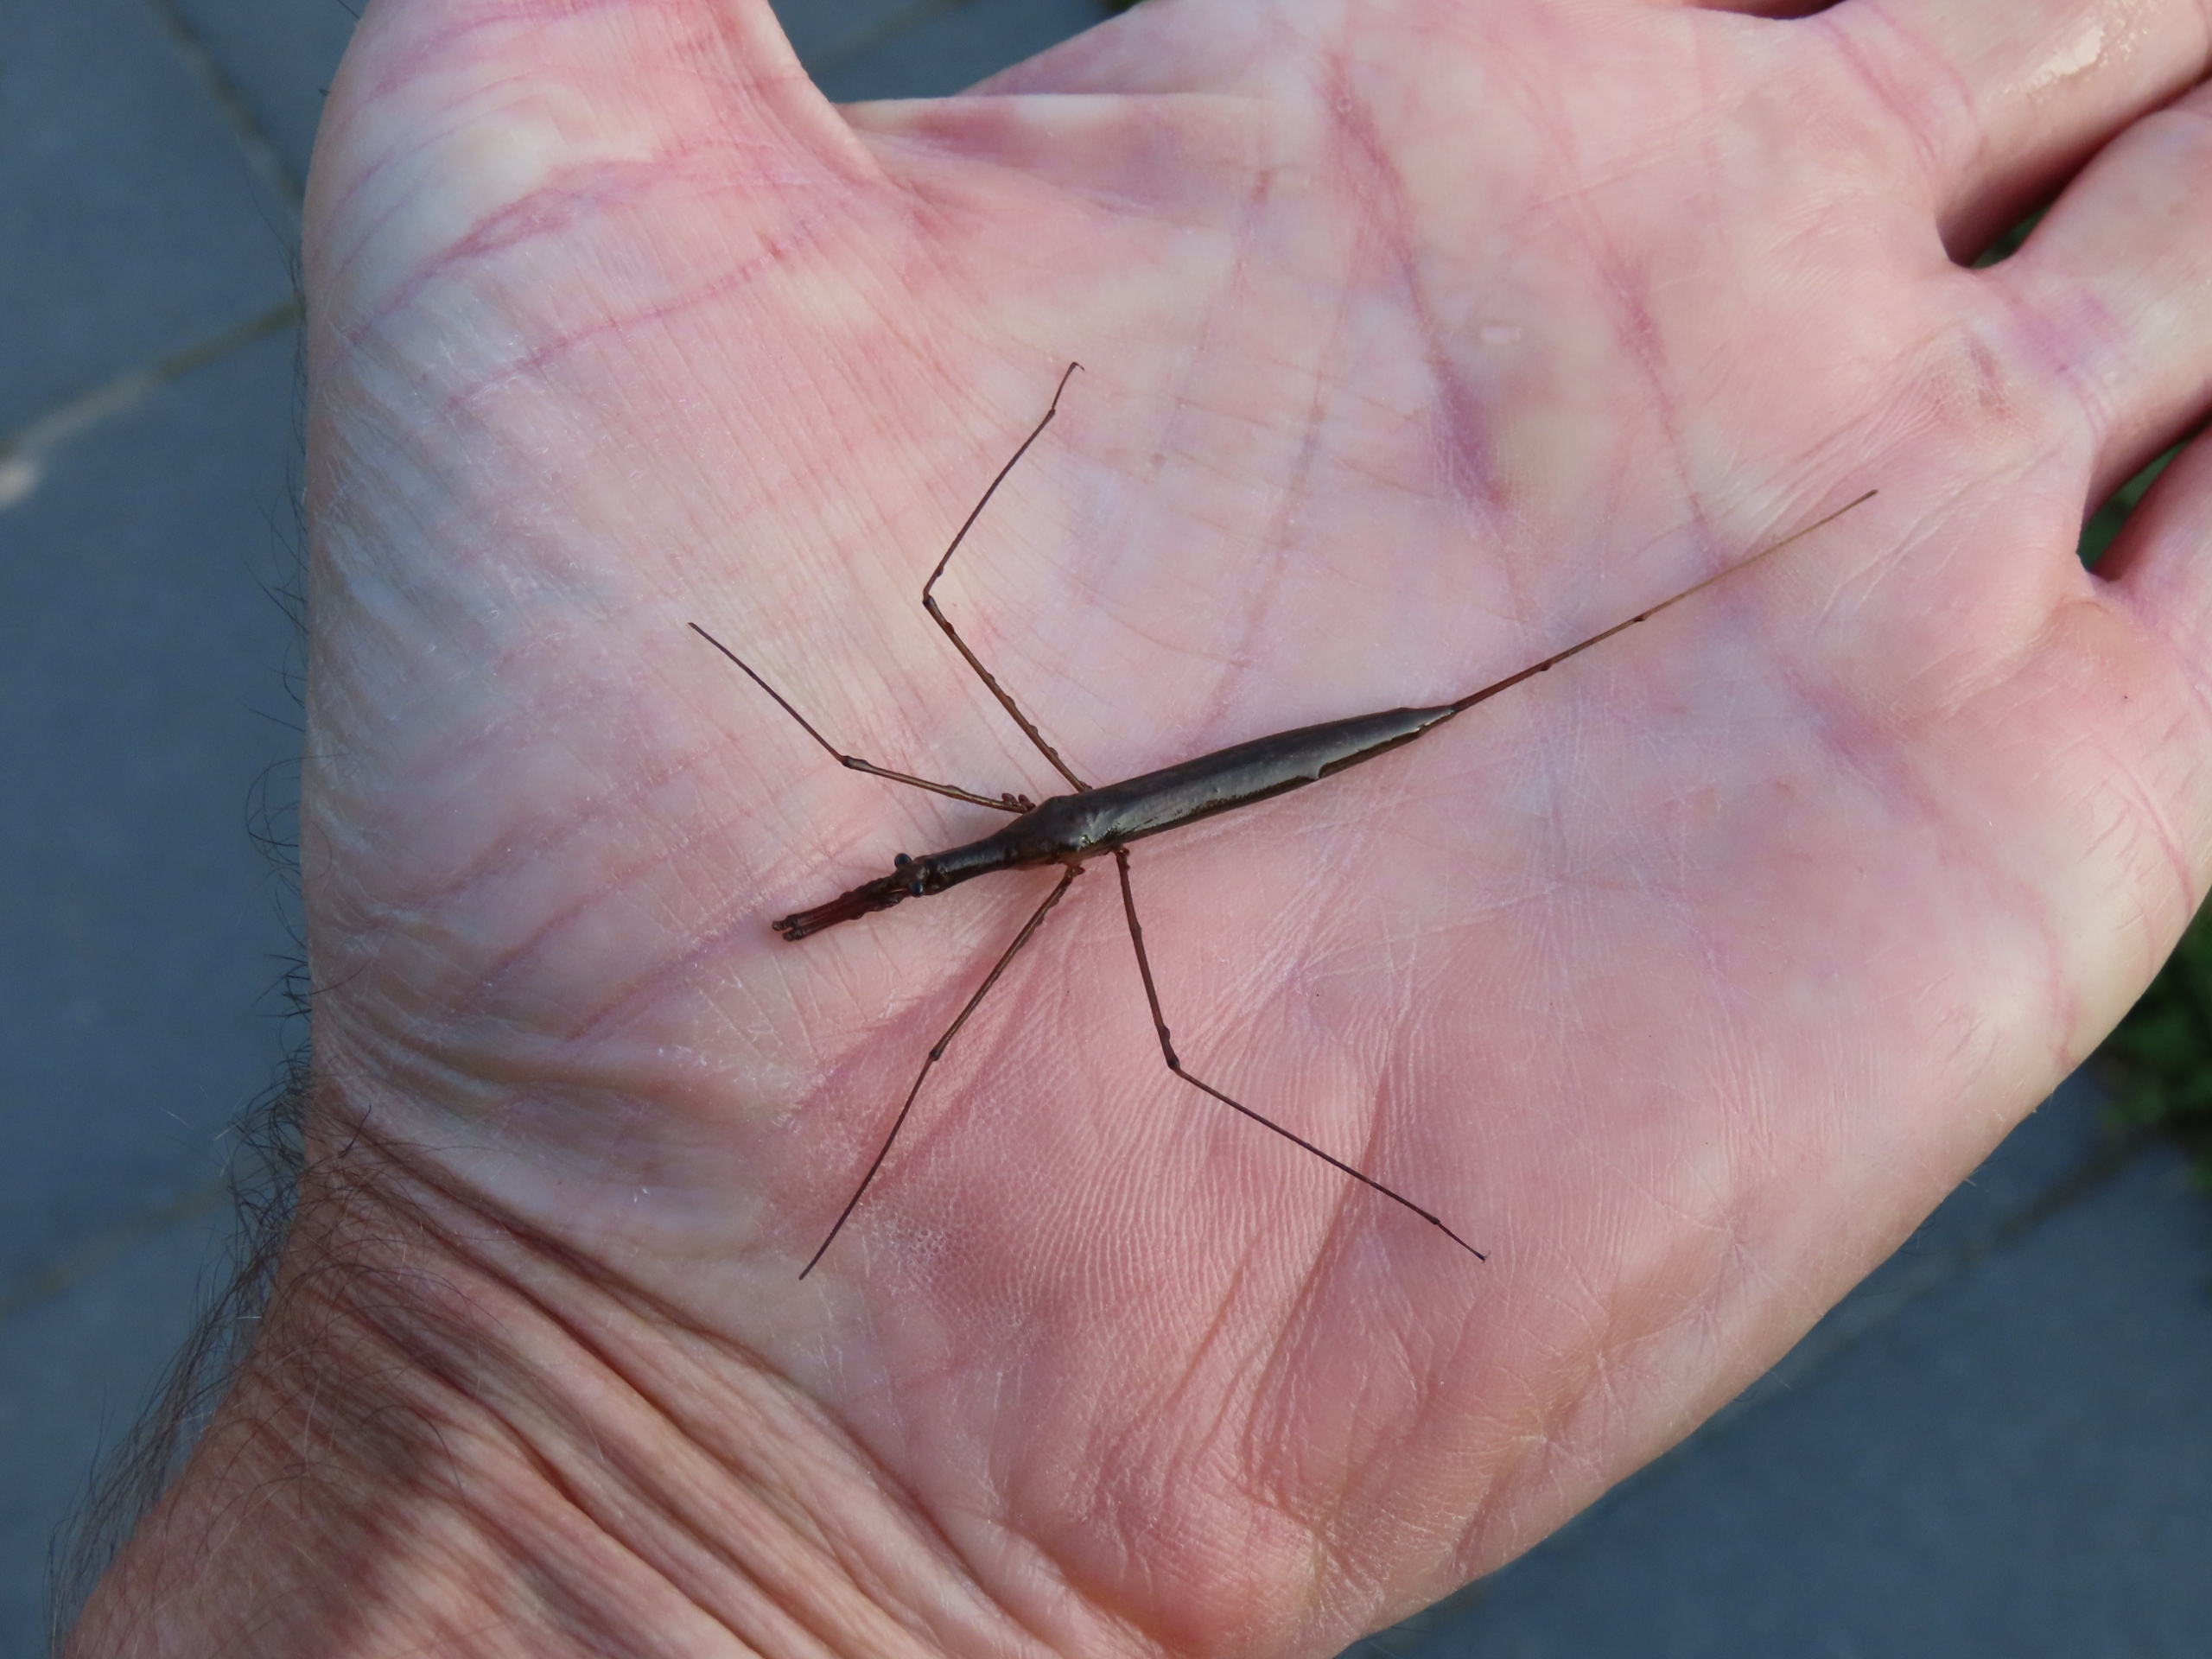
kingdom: Animalia
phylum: Arthropoda
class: Insecta
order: Hemiptera
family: Nepidae
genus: Ranatra
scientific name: Ranatra linearis
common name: Stavtæge
